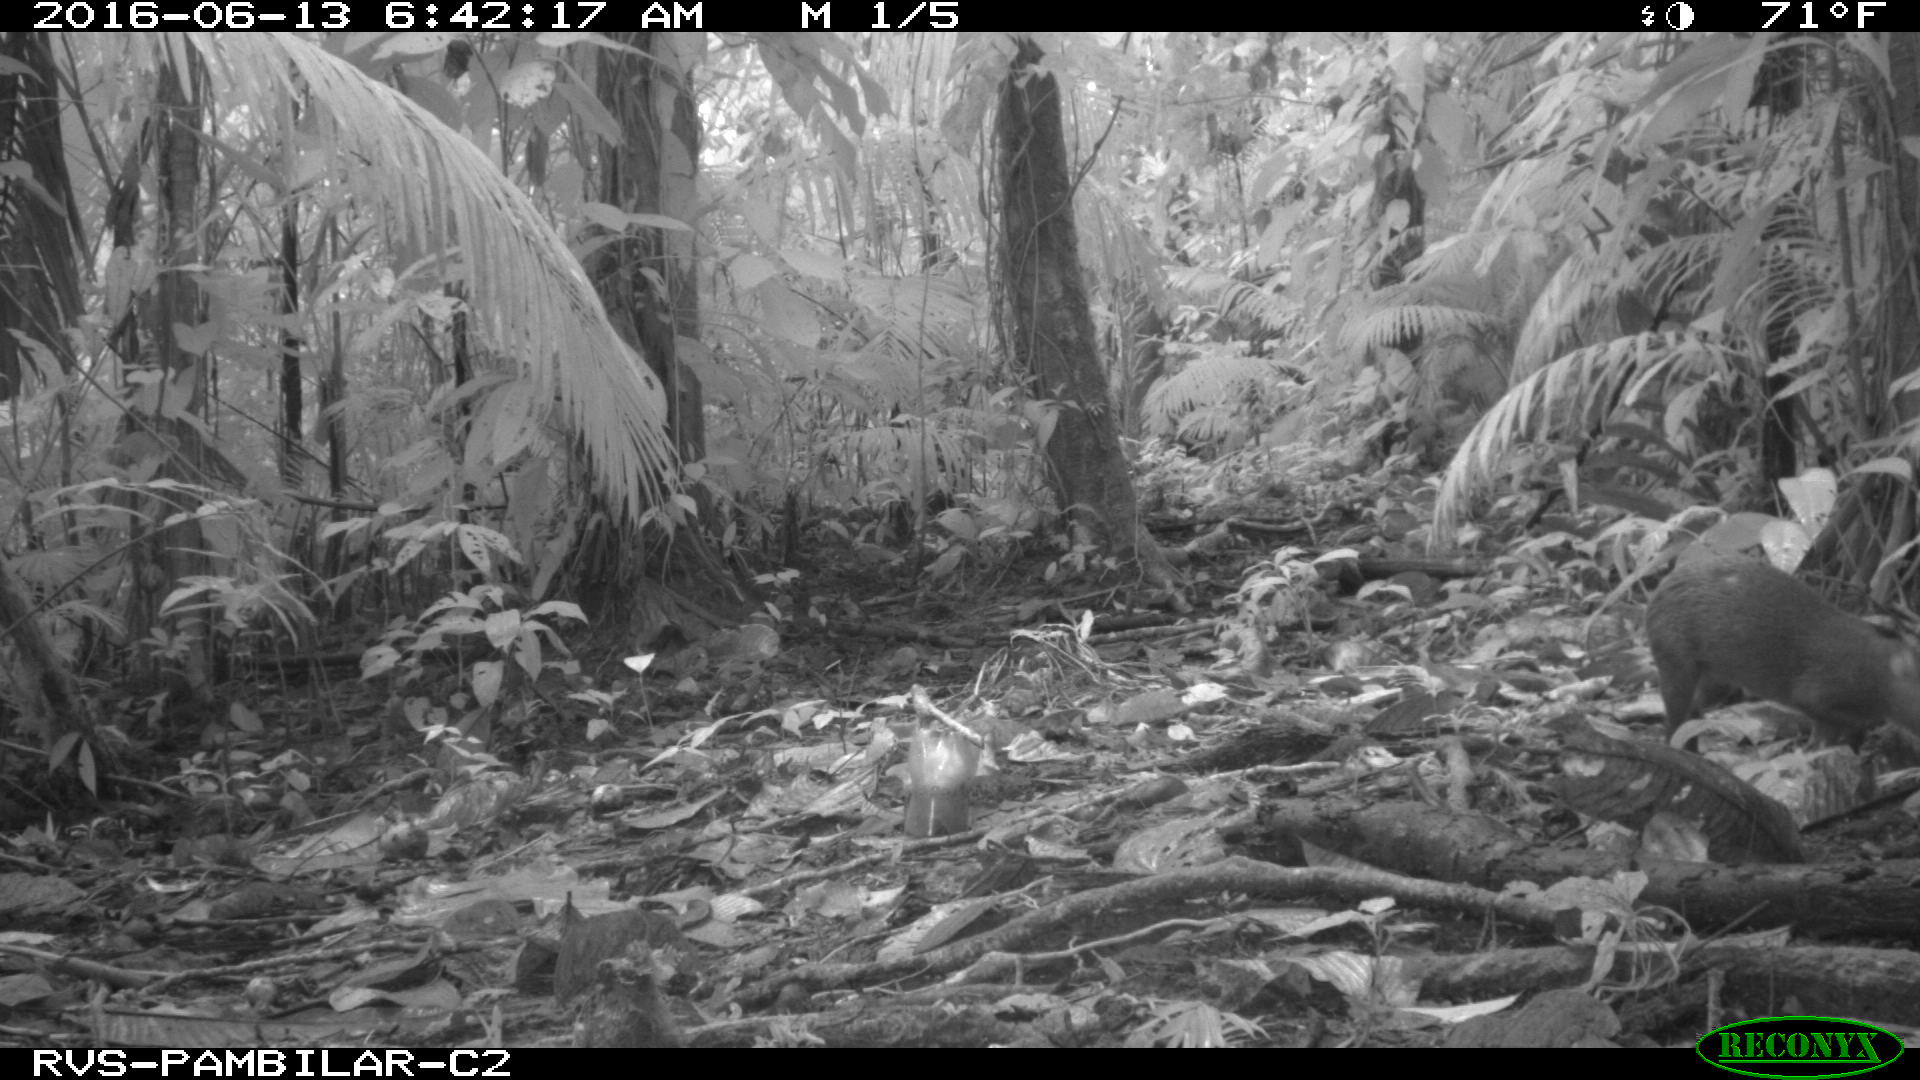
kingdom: Animalia
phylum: Chordata
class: Mammalia
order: Rodentia
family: Dasyproctidae
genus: Dasyprocta
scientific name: Dasyprocta punctata
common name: Central american agouti
